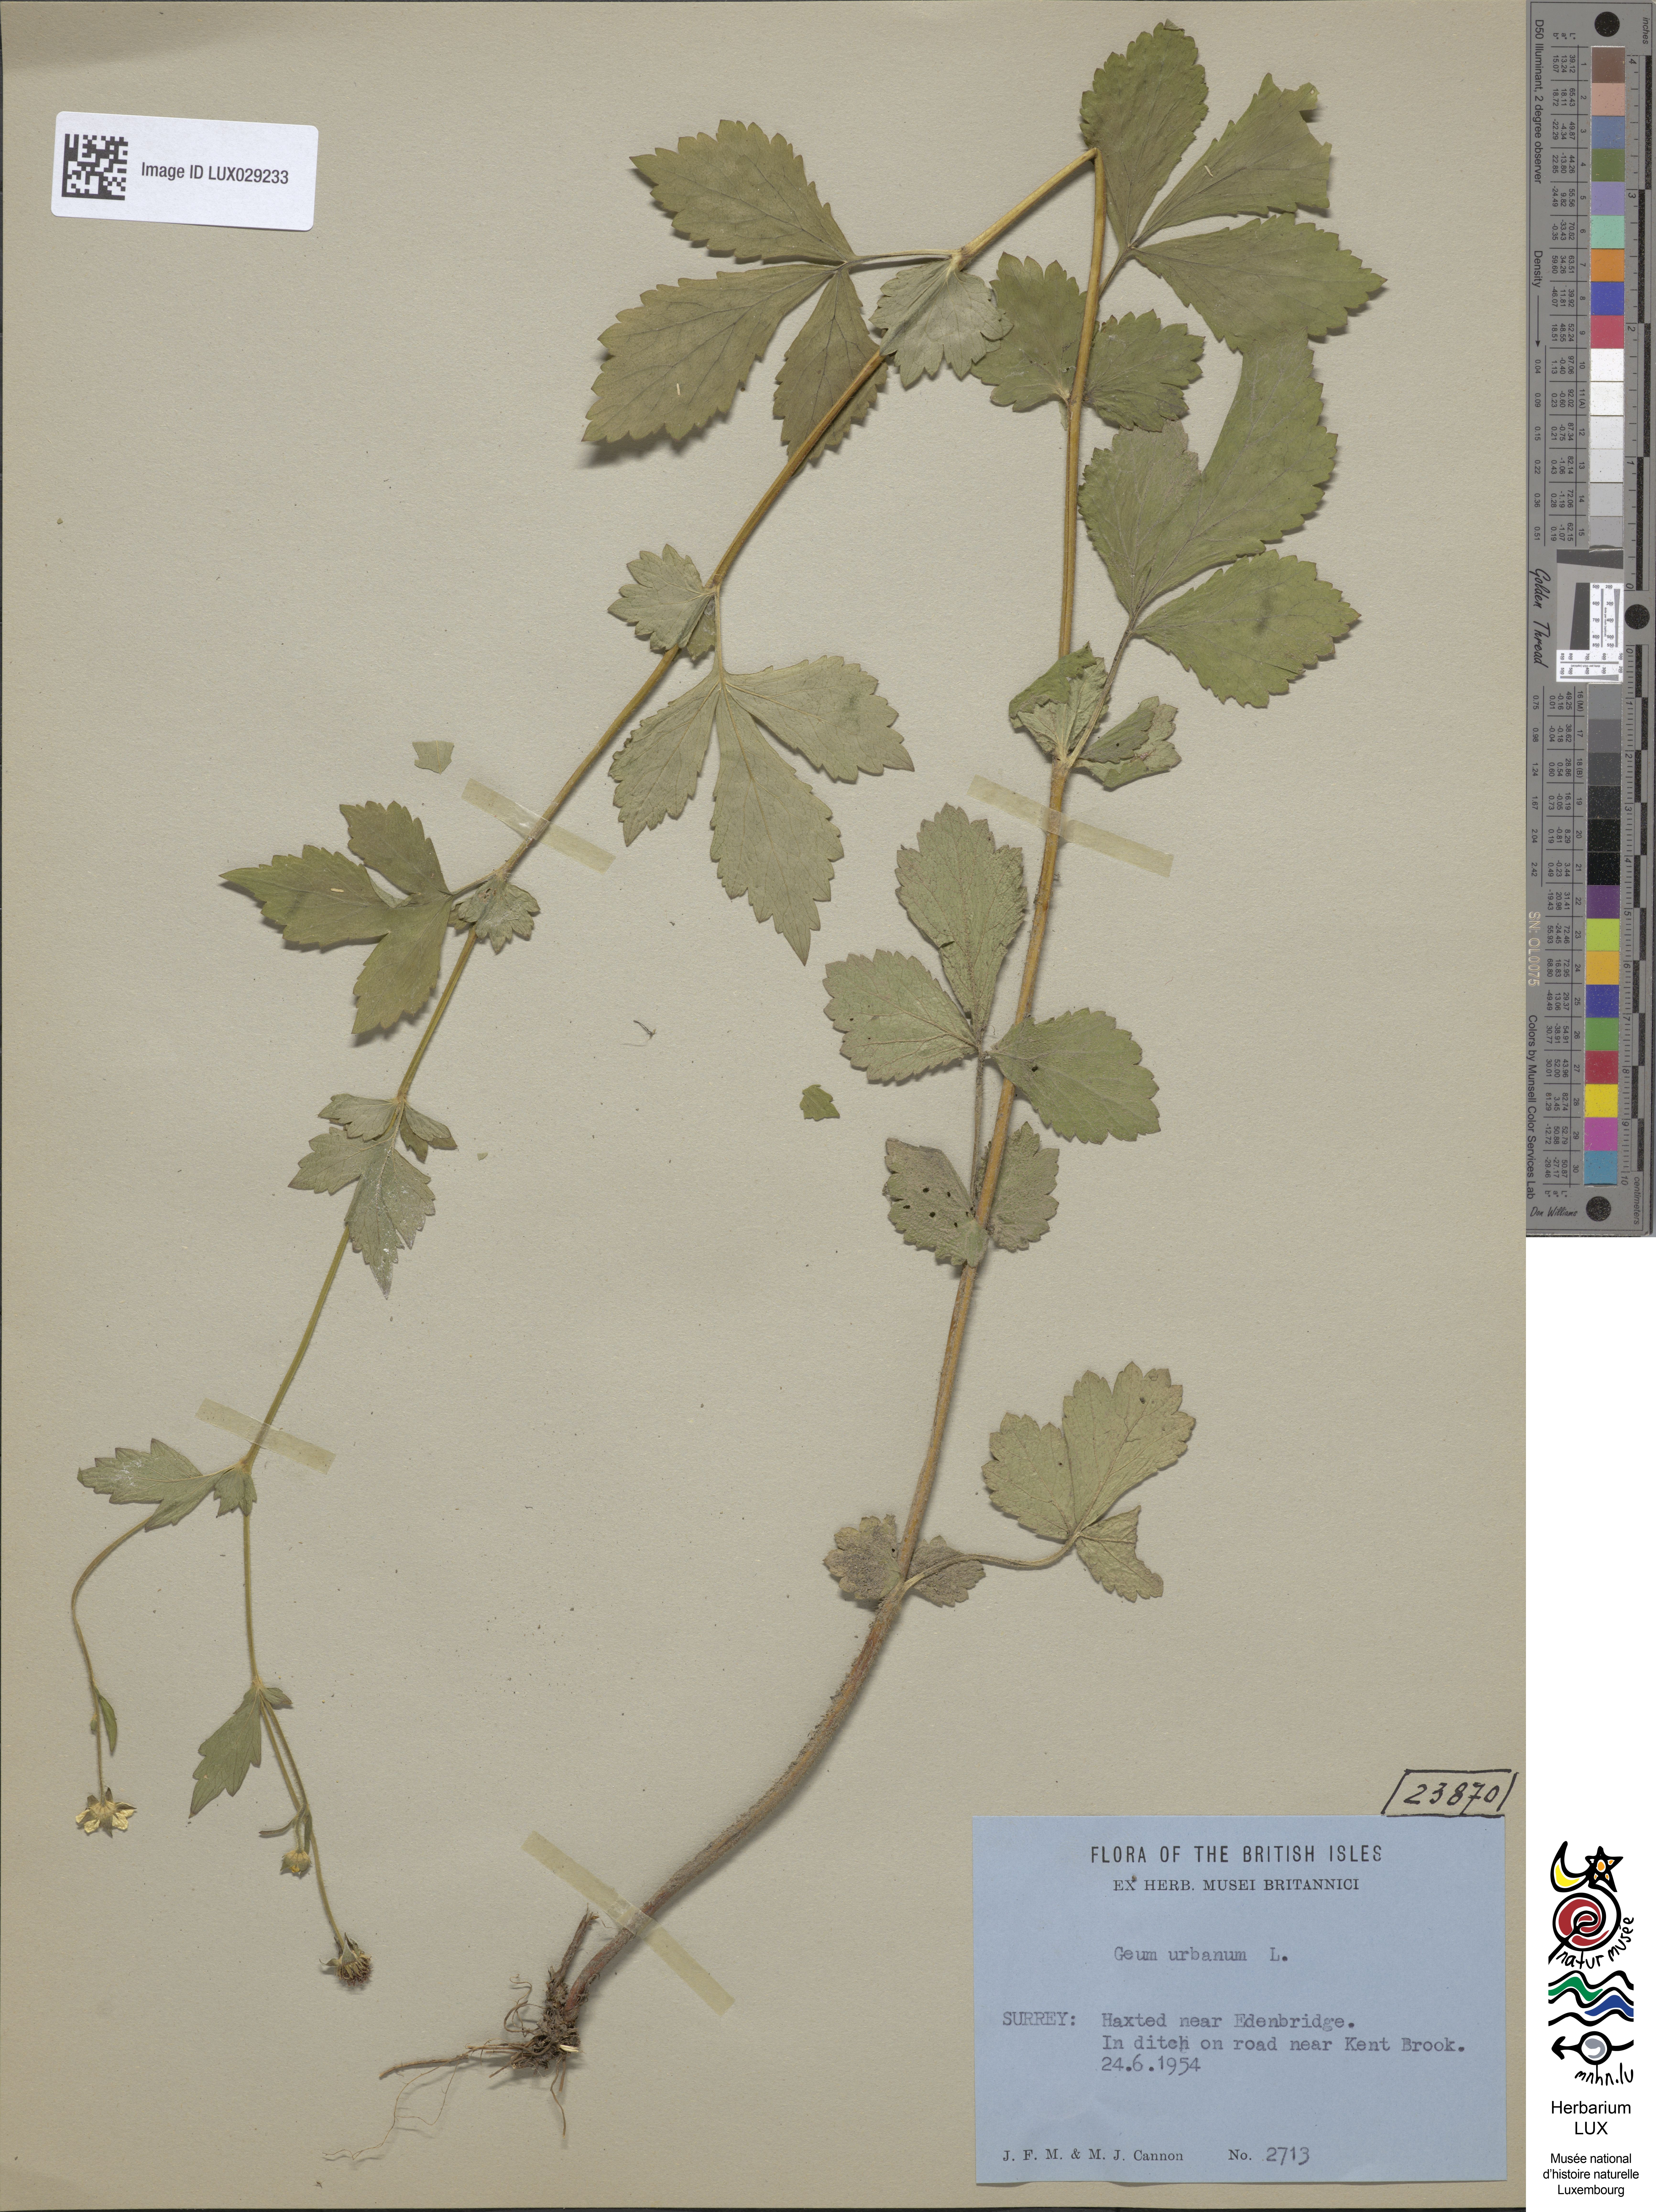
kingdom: Plantae
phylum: Tracheophyta
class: Magnoliopsida
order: Rosales
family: Rosaceae
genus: Geum
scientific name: Geum urbanum
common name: Wood avens
